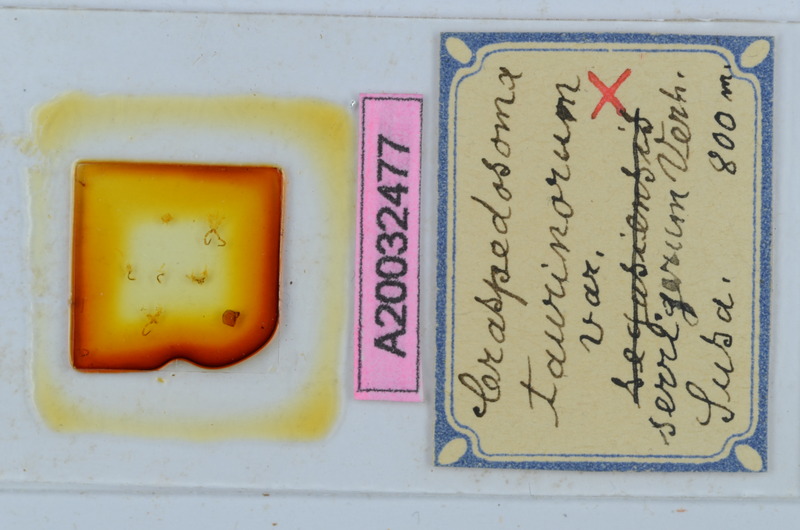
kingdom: Animalia
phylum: Arthropoda
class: Diplopoda
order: Chordeumatida
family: Craspedosomatidae
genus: Craspedosoma
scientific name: Craspedosoma taurinorum
